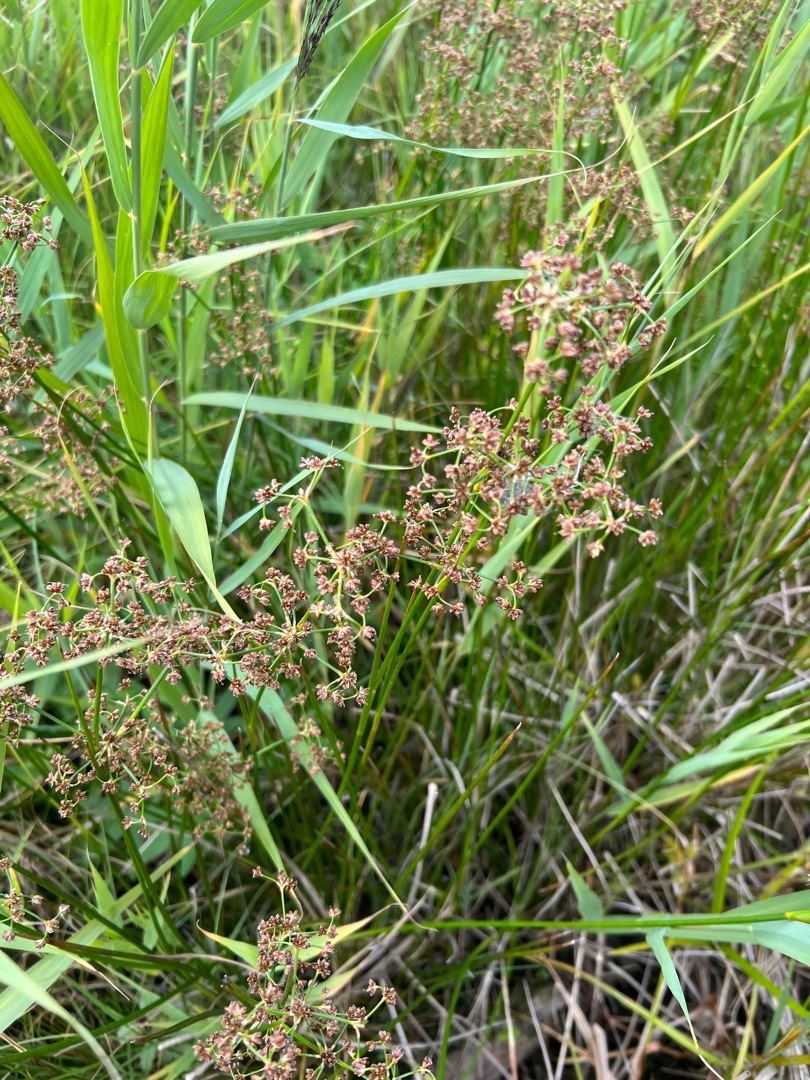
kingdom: Plantae
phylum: Tracheophyta
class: Liliopsida
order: Poales
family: Juncaceae
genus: Juncus
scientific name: Juncus subnodulosus
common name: Butblomstret siv
